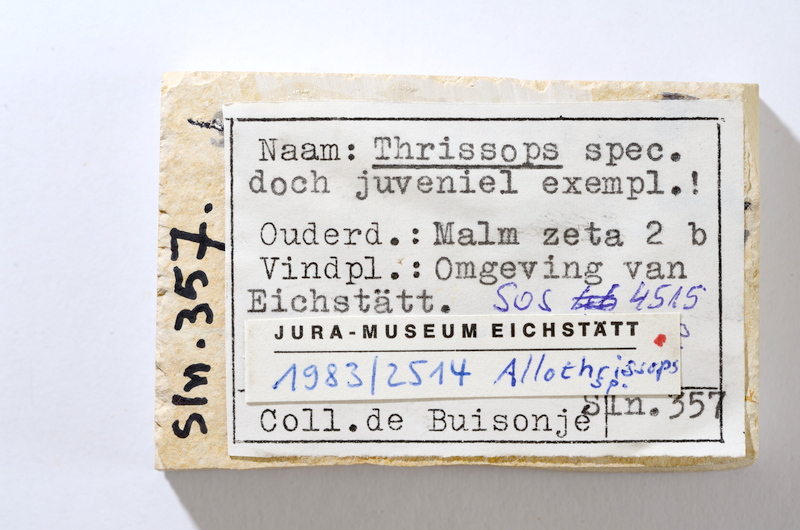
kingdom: Animalia
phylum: Chordata
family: Allothrissopidae
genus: Allothrissops
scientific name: Allothrissops mesogaster
